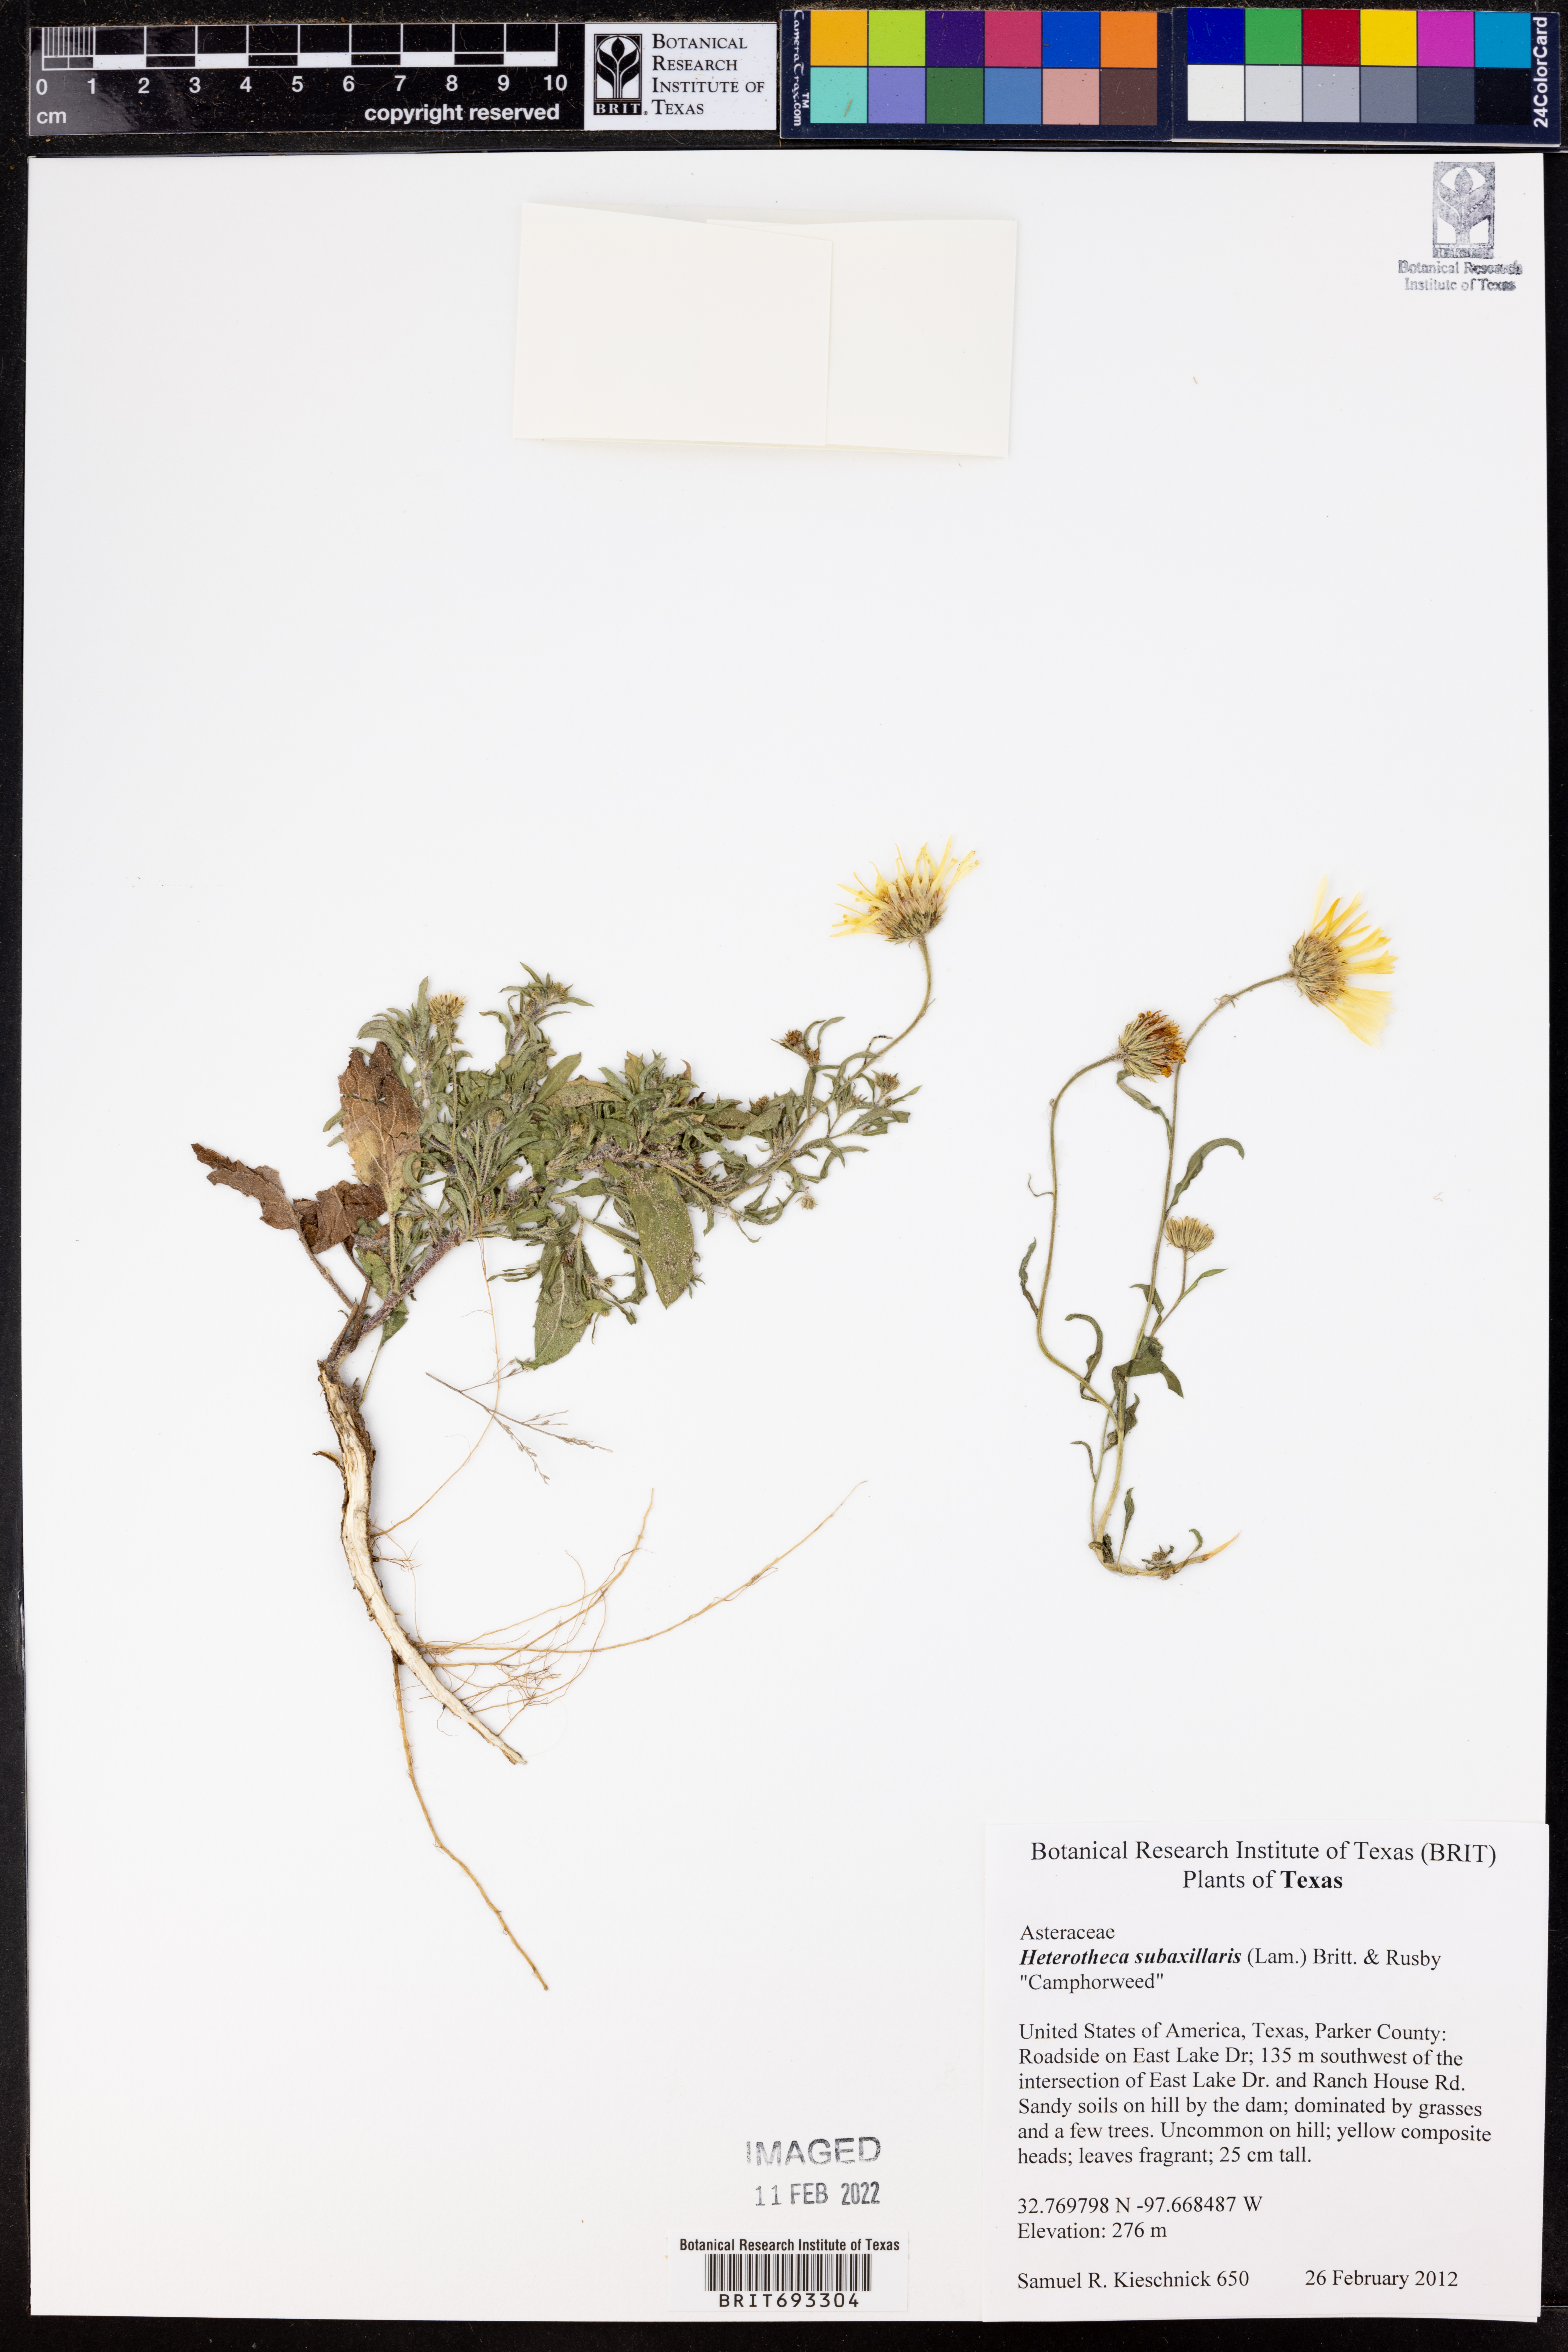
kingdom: Plantae
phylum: Tracheophyta
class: Magnoliopsida
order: Asterales
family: Asteraceae
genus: Heterotheca
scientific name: Heterotheca subaxillaris
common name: Camphorweed
